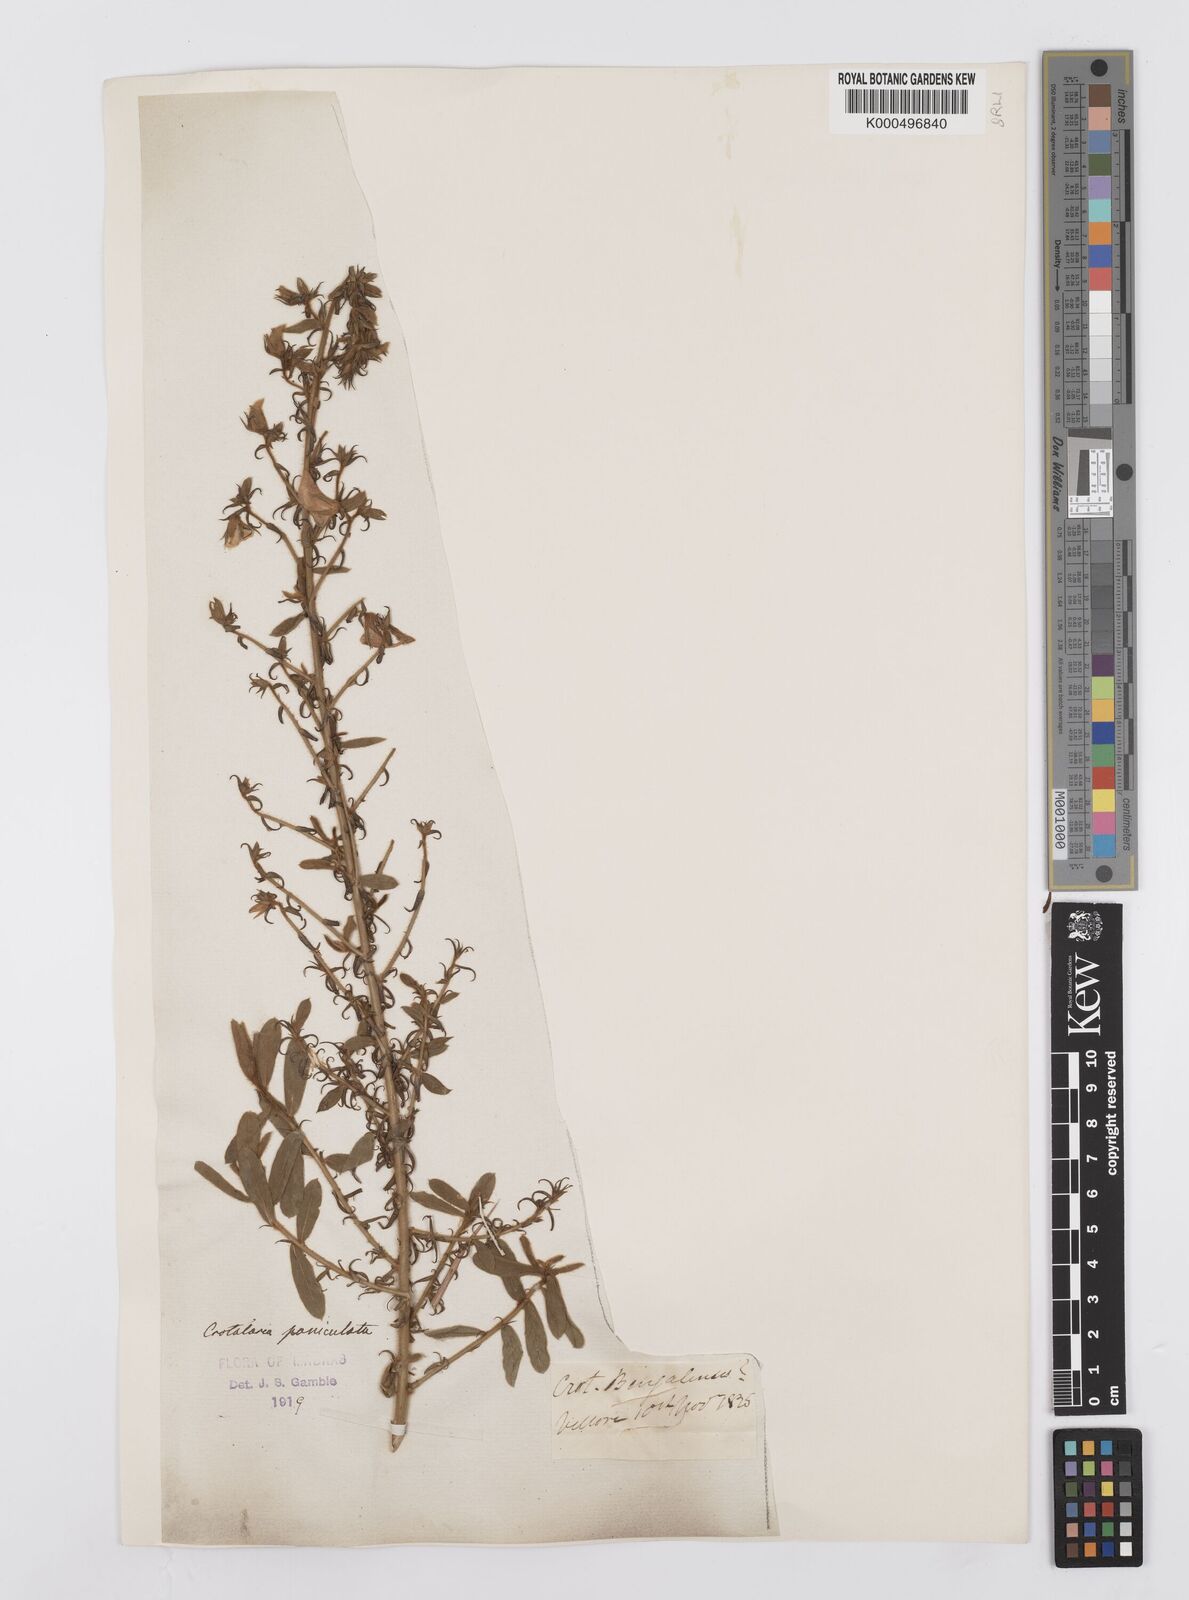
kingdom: Plantae
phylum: Tracheophyta
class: Magnoliopsida
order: Fabales
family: Fabaceae
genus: Crotalaria
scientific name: Crotalaria paniculata
